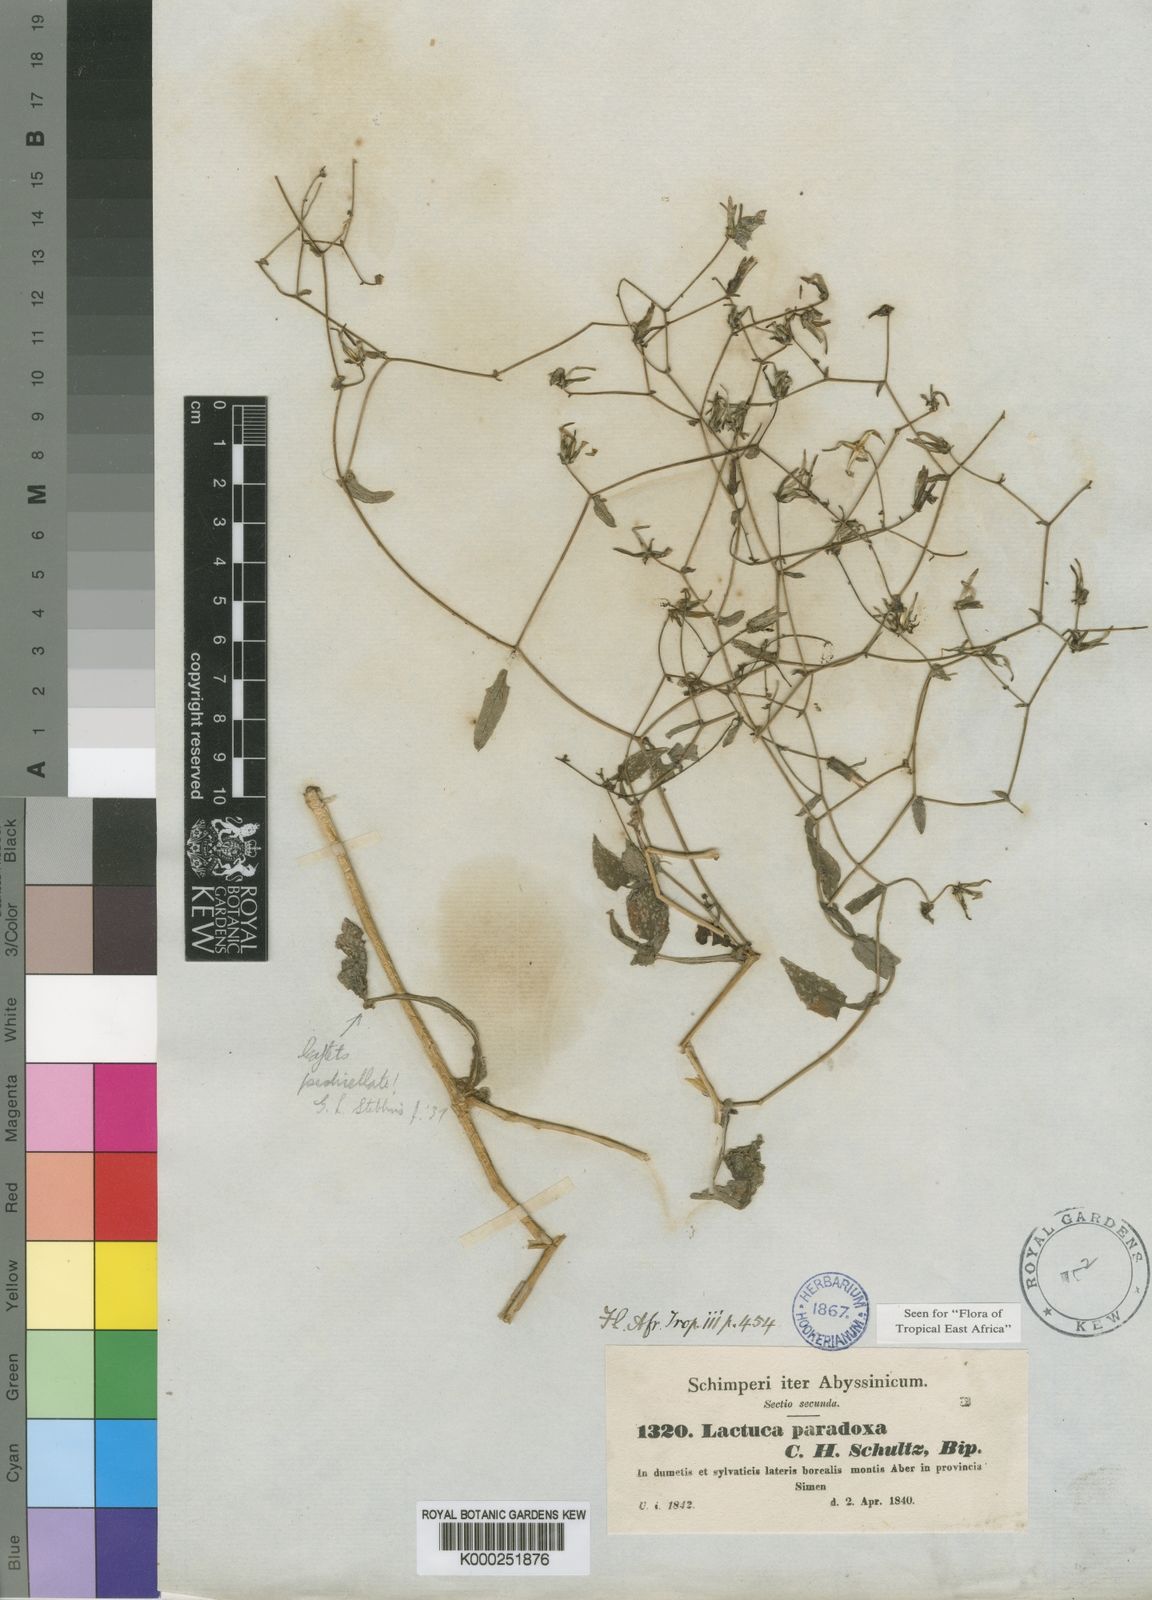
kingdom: Plantae
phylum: Tracheophyta
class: Magnoliopsida
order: Asterales
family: Asteraceae
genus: Lactuca
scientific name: Lactuca paradoxa
